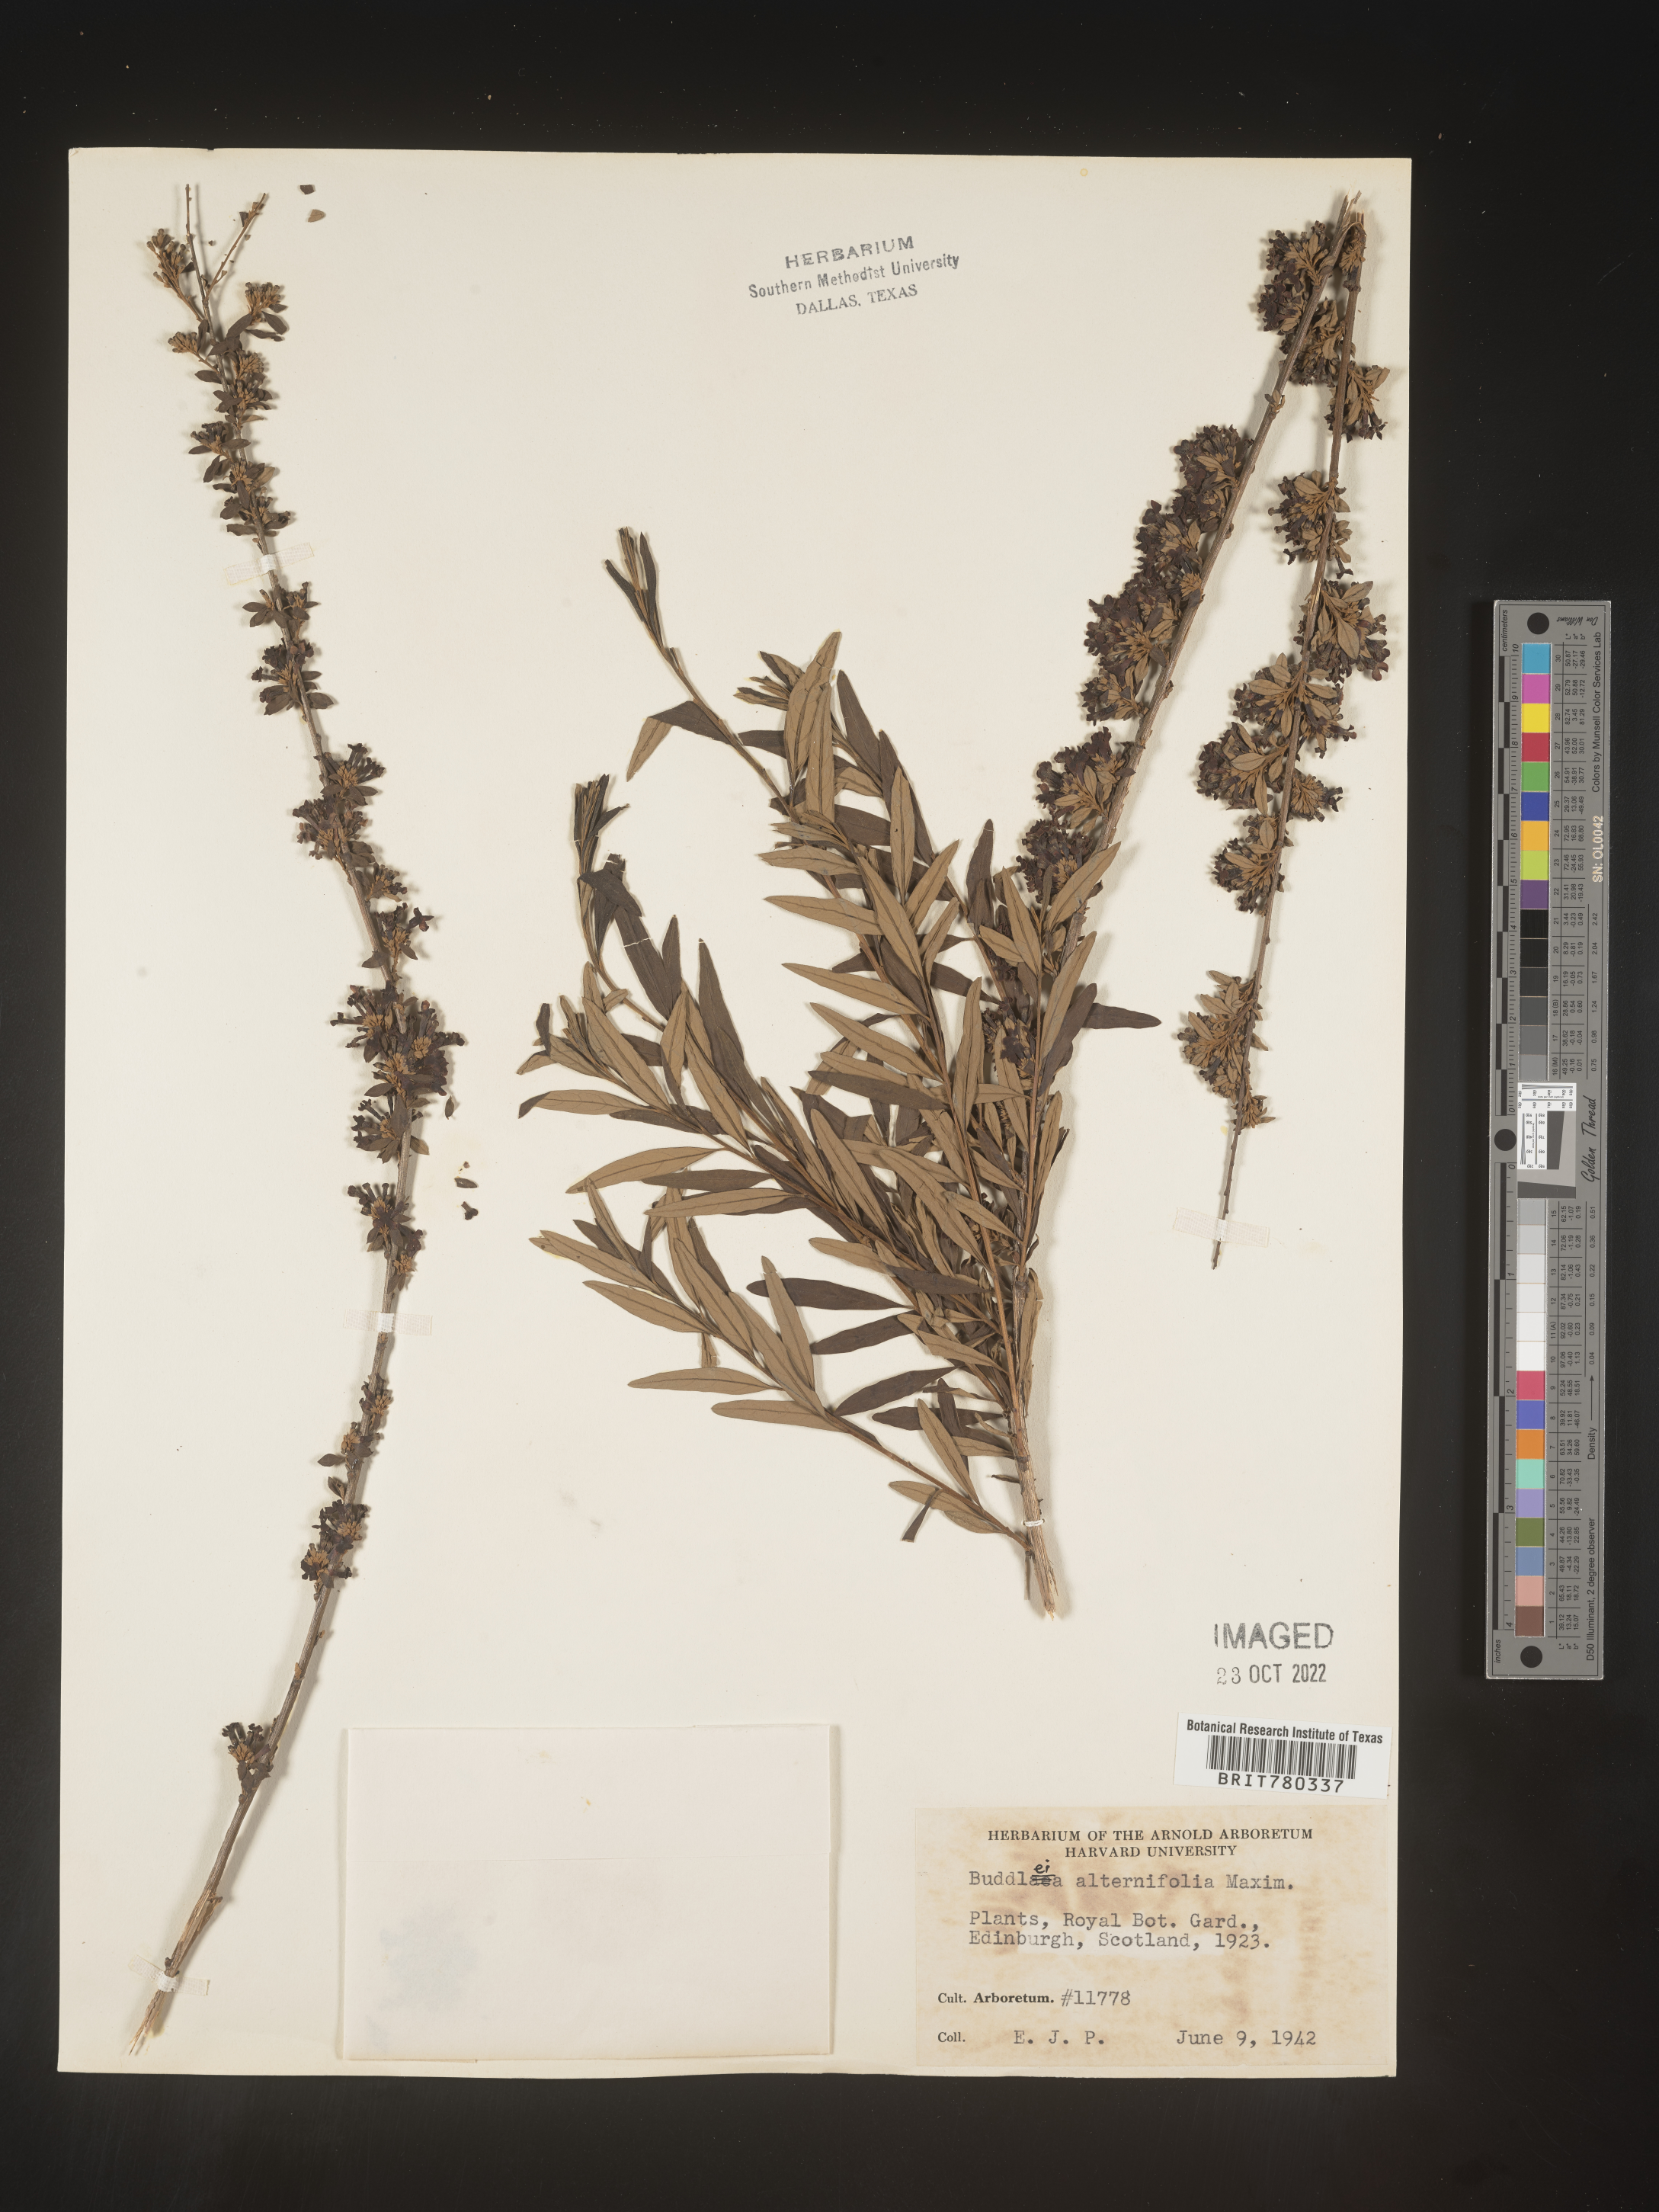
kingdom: Plantae
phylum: Tracheophyta
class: Magnoliopsida
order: Lamiales
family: Scrophulariaceae
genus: Buddleja
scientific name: Buddleja
